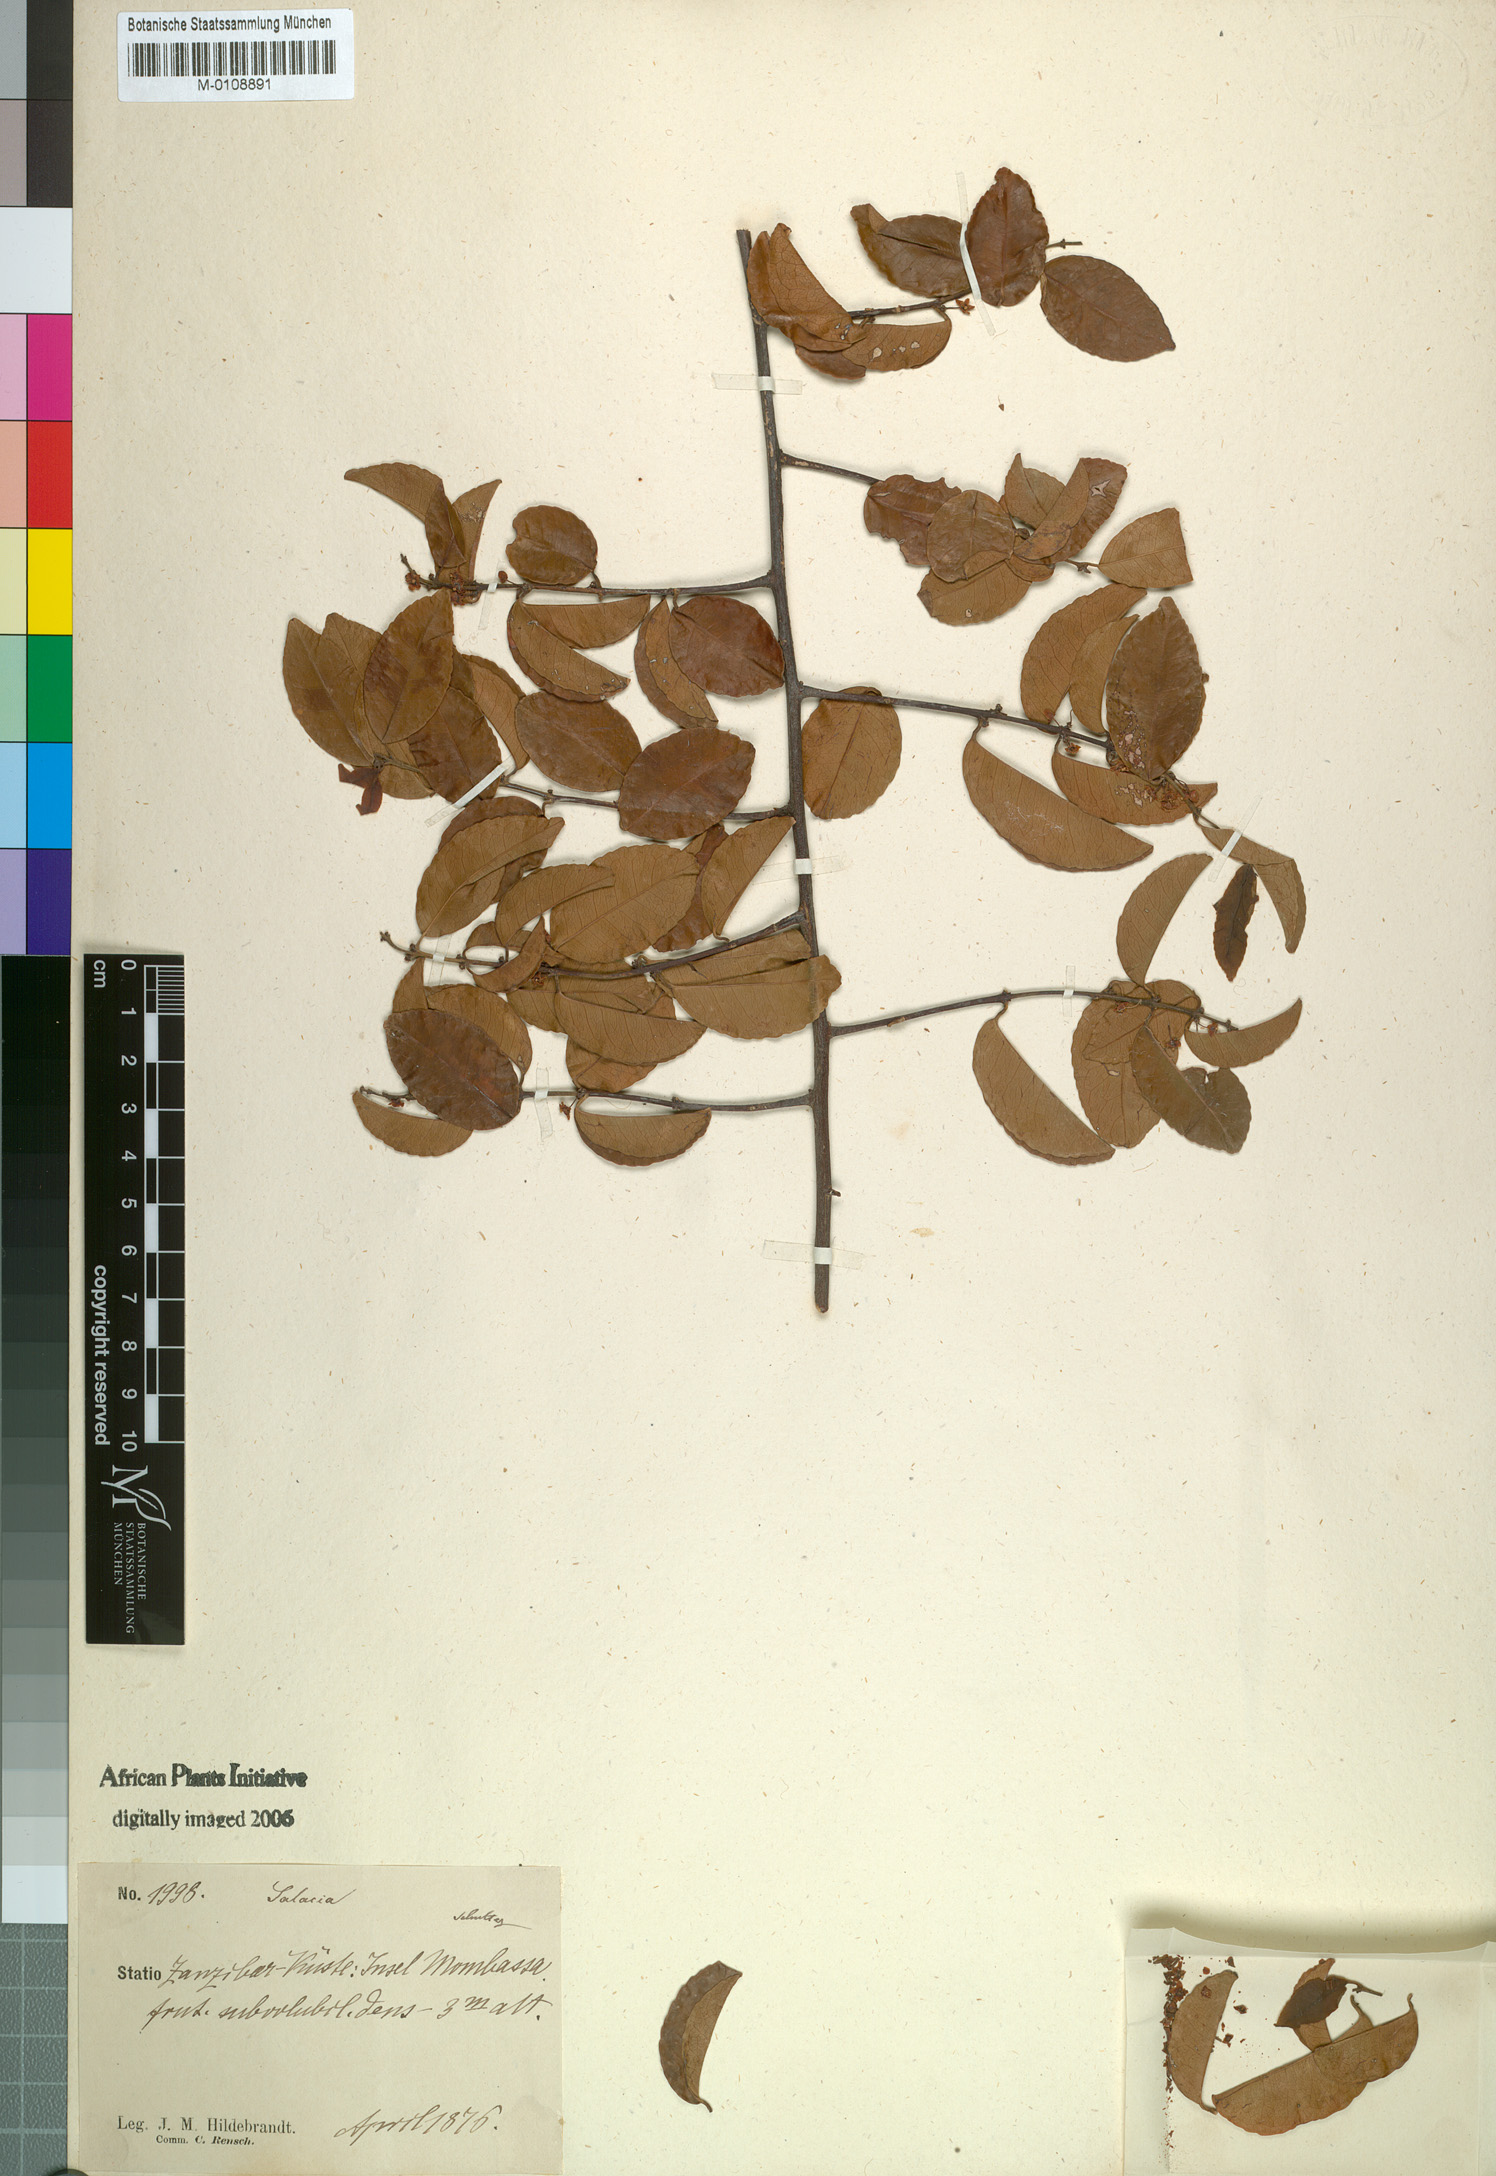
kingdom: Plantae
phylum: Tracheophyta
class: Magnoliopsida
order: Celastrales
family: Celastraceae
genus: Salacia
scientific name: Salacia elegans
